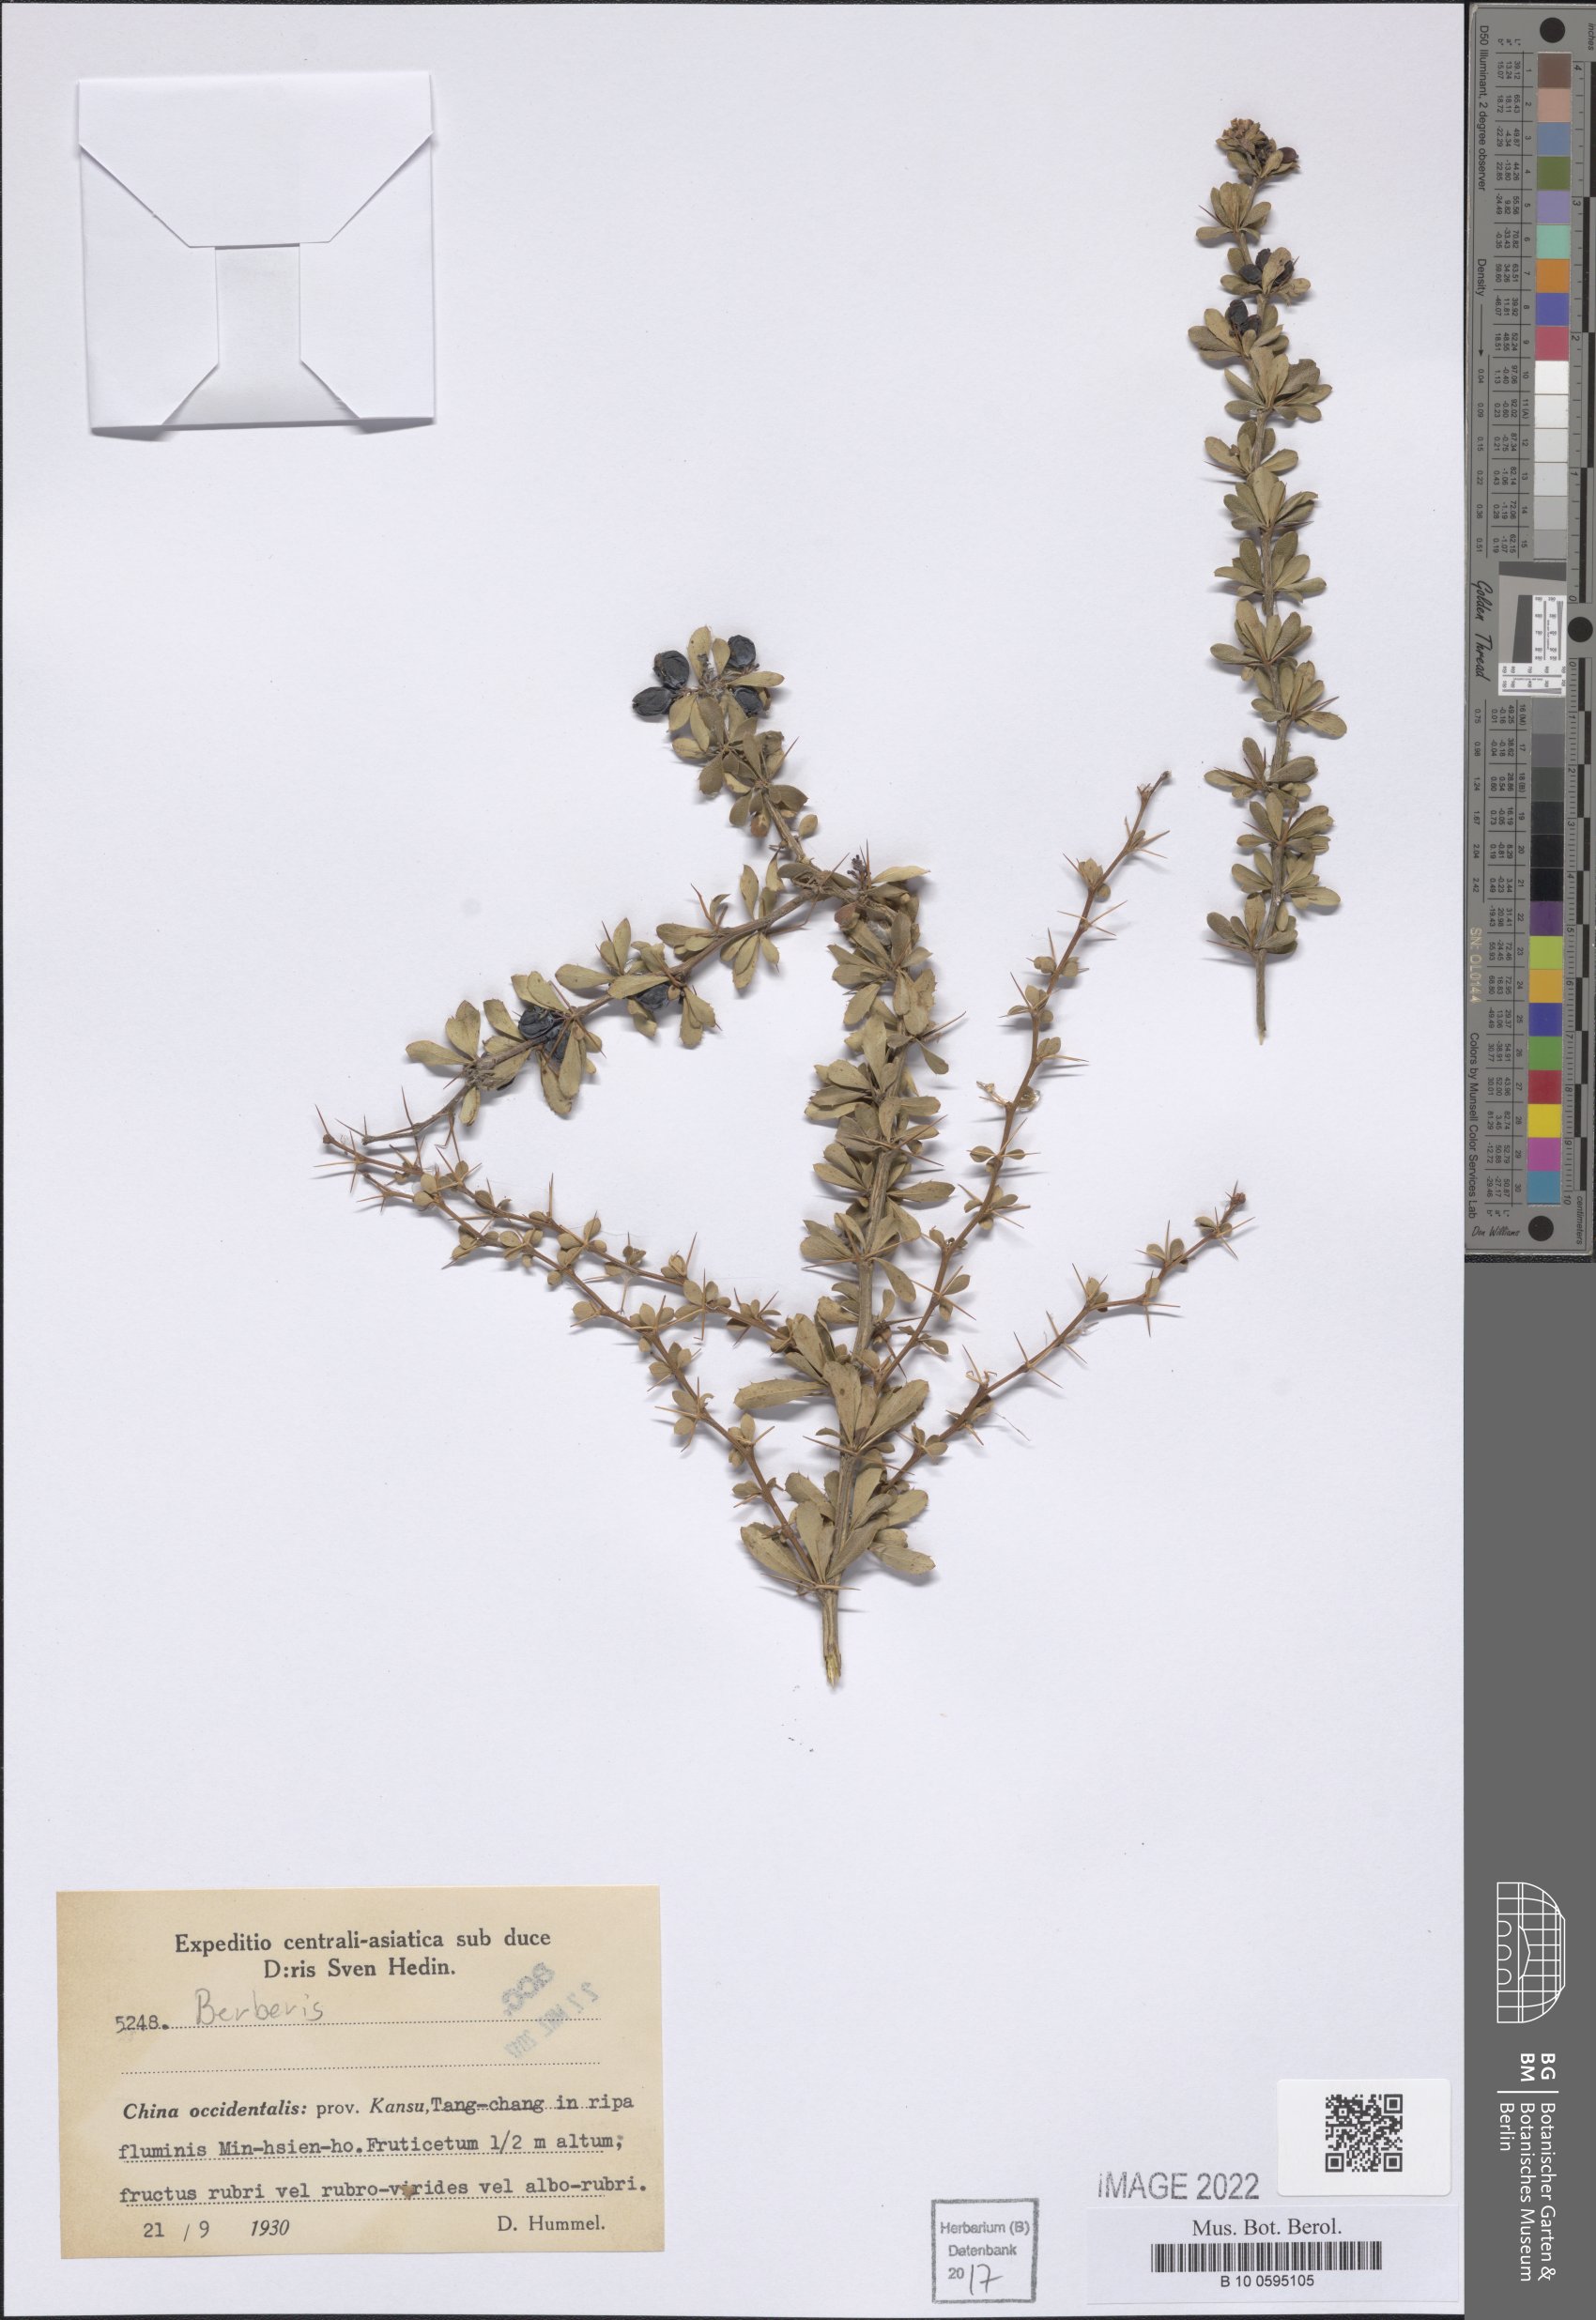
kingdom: Plantae
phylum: Tracheophyta
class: Magnoliopsida
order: Ranunculales
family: Berberidaceae
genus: Berberis
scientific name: Berberis
